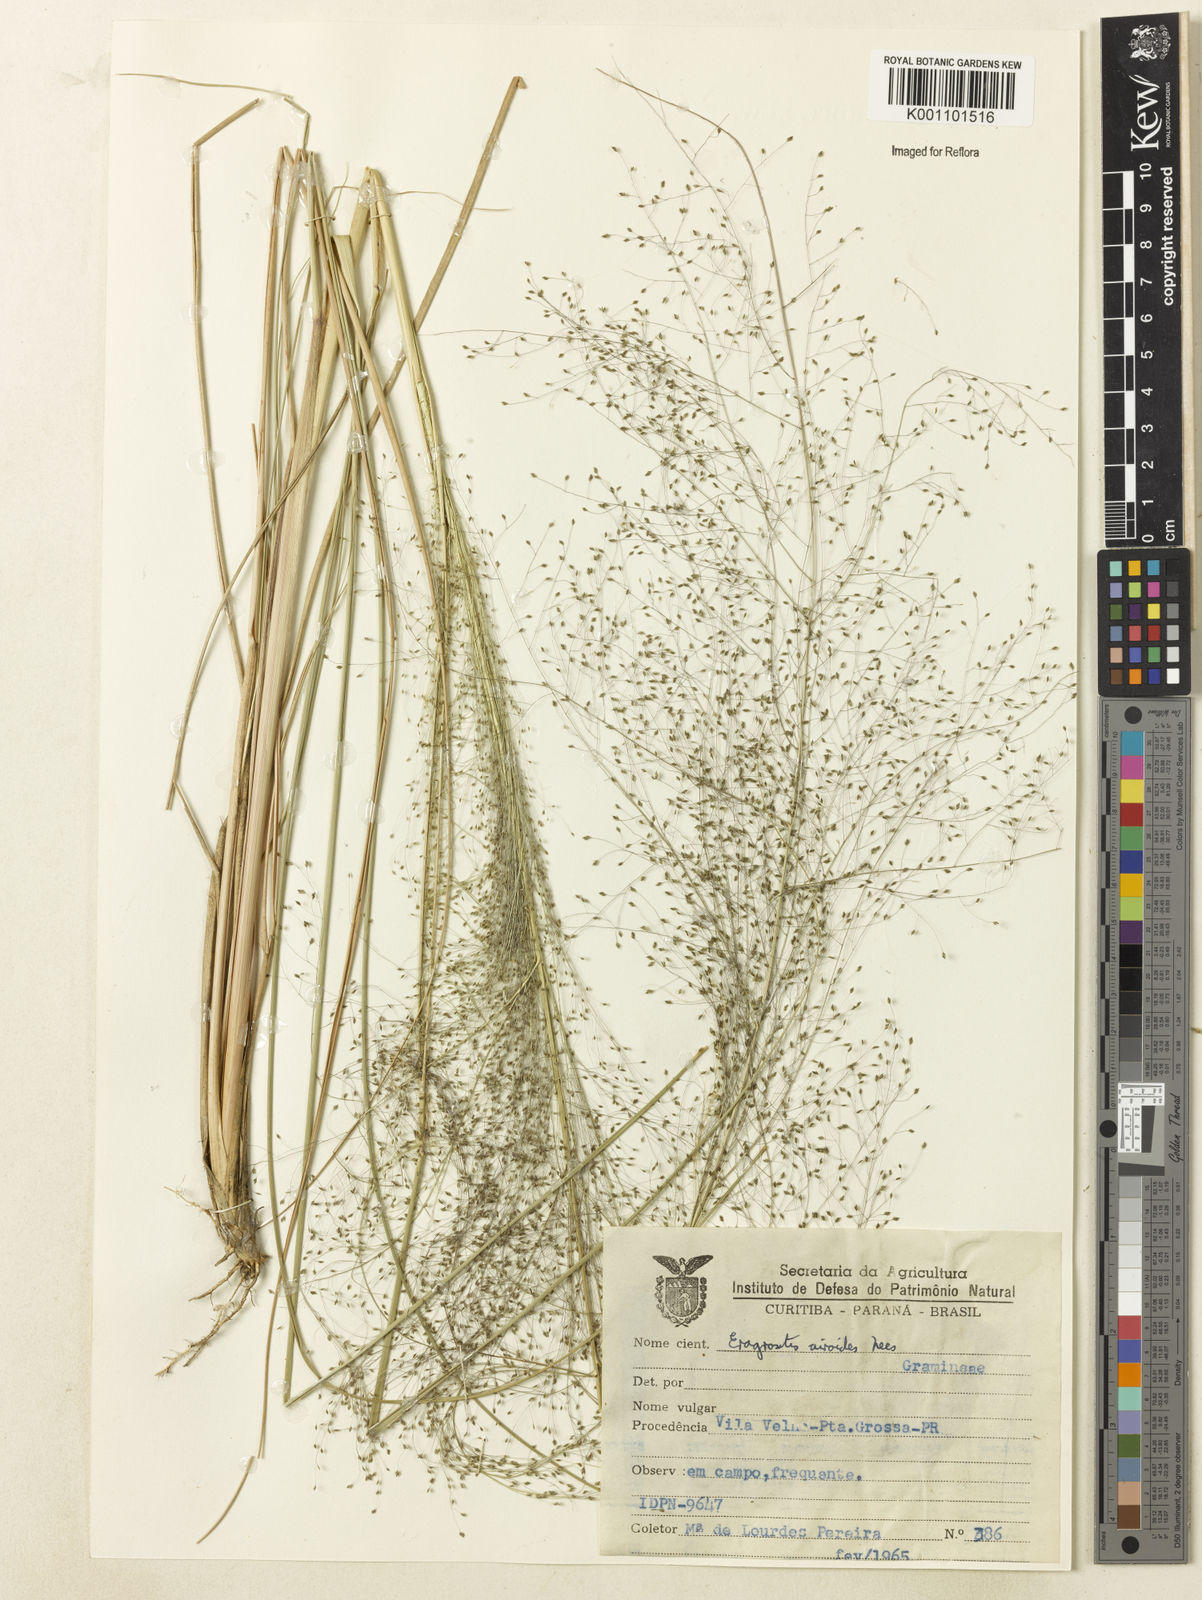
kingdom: Plantae
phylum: Tracheophyta
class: Liliopsida
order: Poales
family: Poaceae
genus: Eragrostis
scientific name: Eragrostis airoides
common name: Darnel lovegrass
